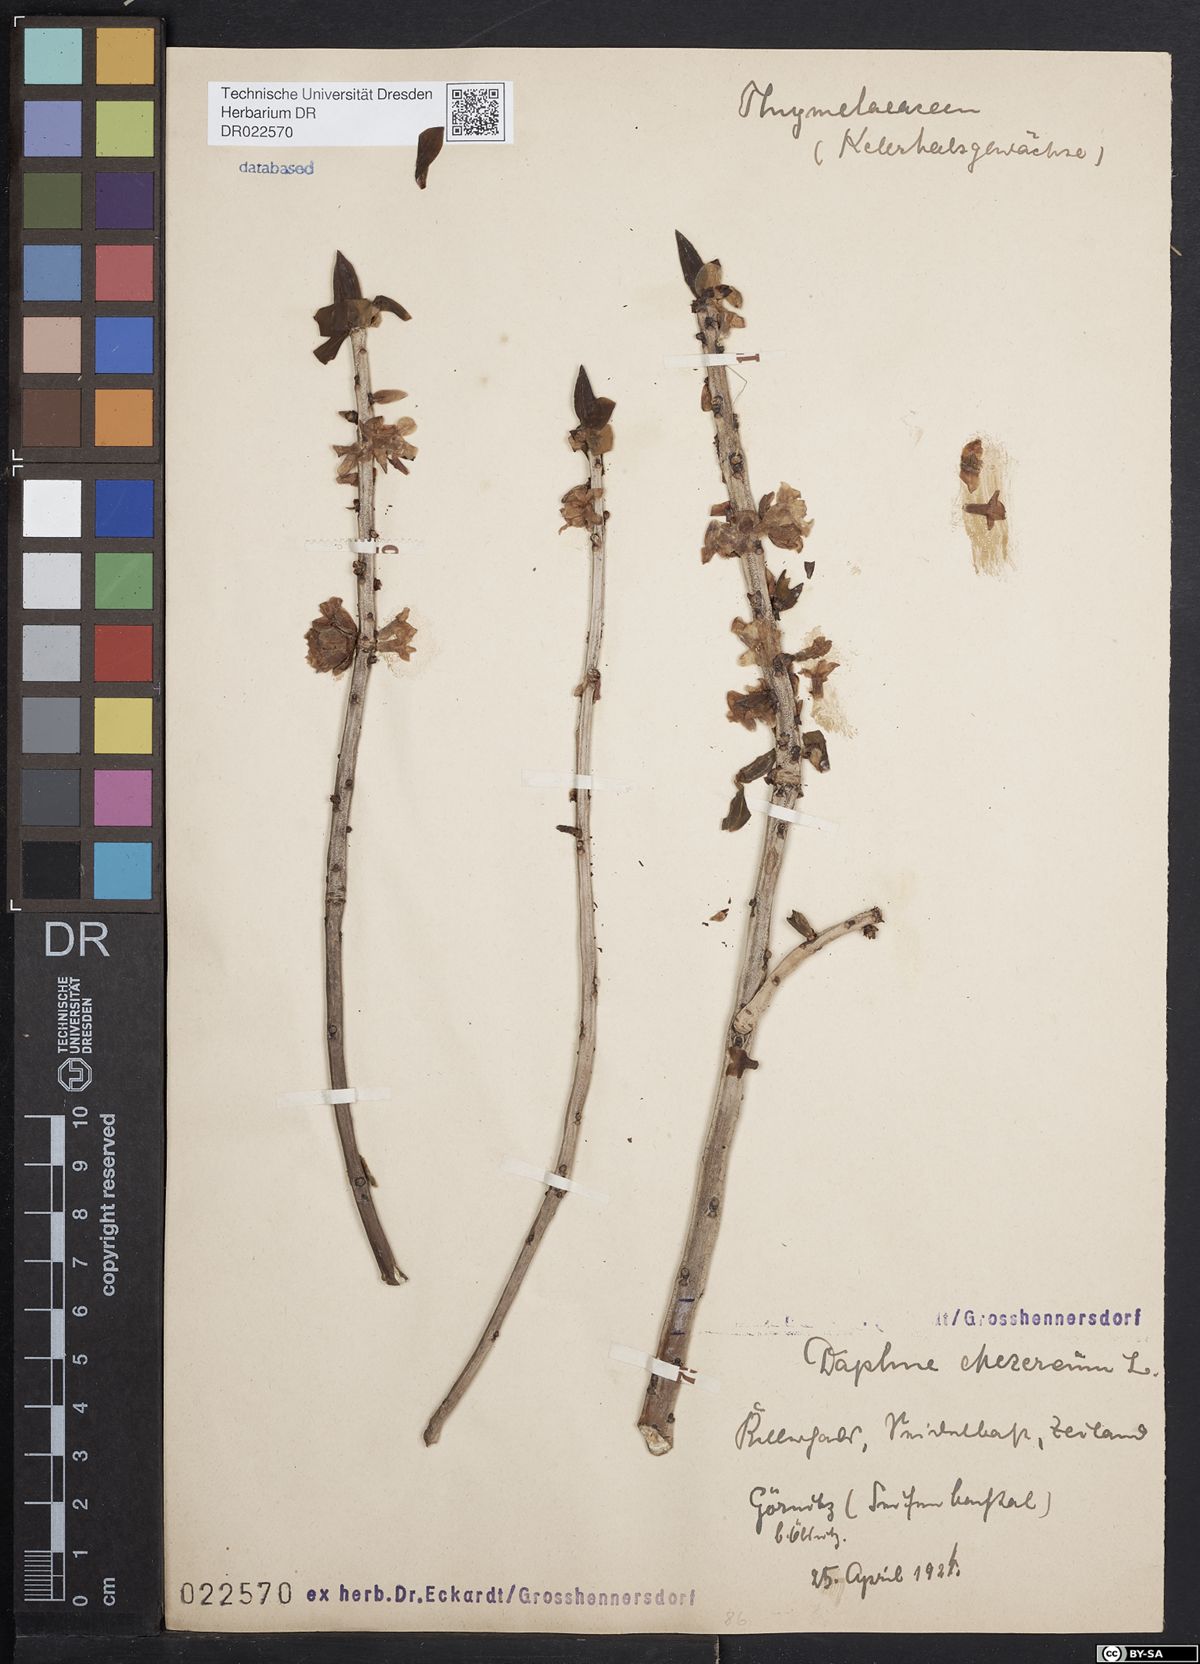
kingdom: Plantae
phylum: Tracheophyta
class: Magnoliopsida
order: Malvales
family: Thymelaeaceae
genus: Daphne
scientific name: Daphne mezereum
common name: Mezereon
